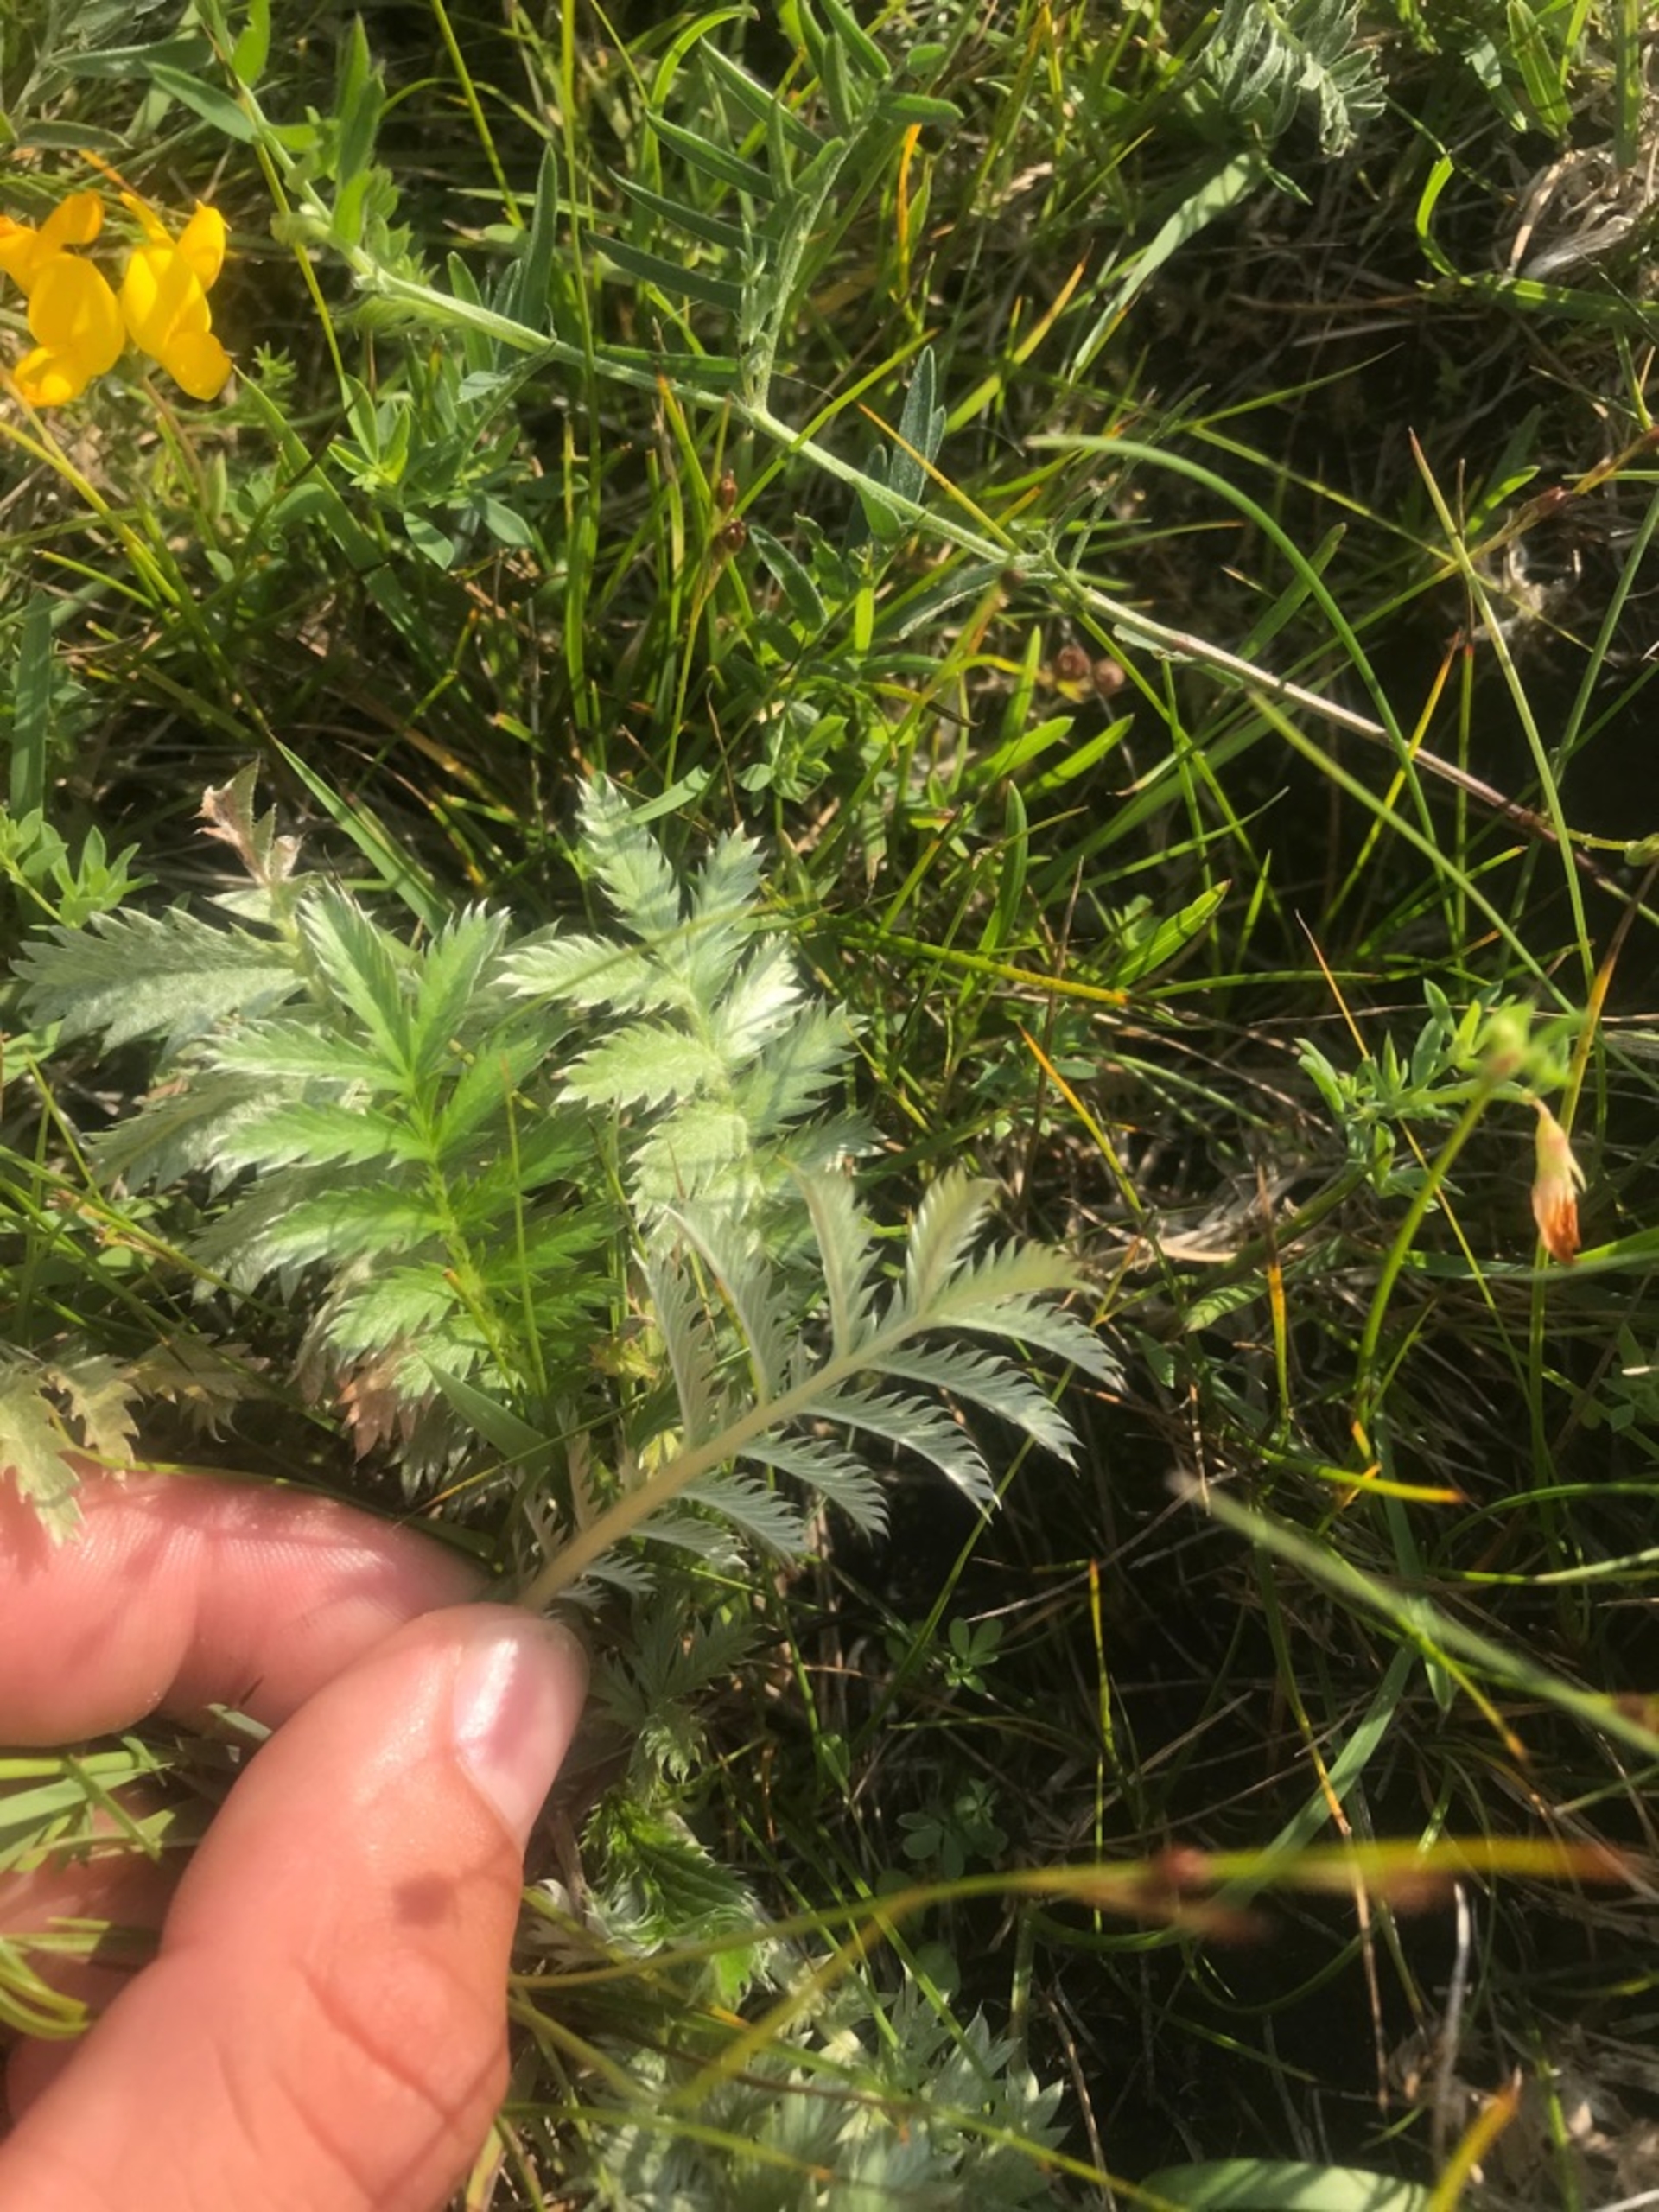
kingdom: Plantae
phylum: Tracheophyta
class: Magnoliopsida
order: Rosales
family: Rosaceae
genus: Argentina
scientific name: Argentina anserina
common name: Gåsepotentil
